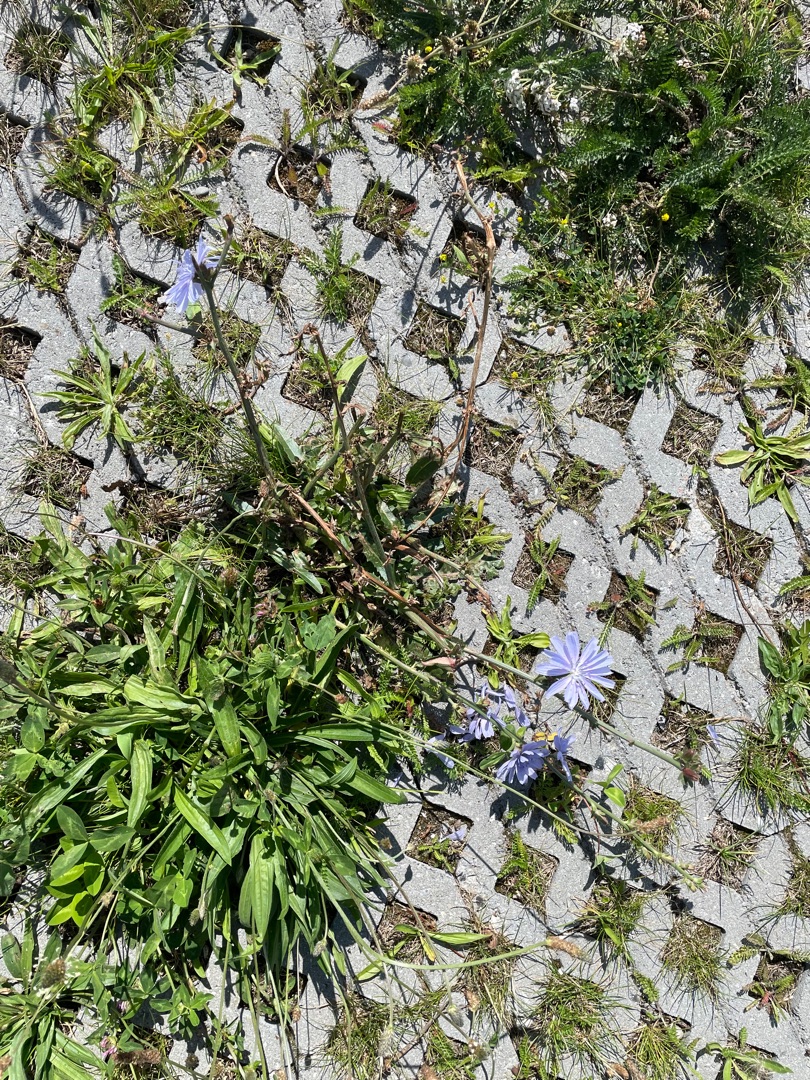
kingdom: Plantae
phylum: Tracheophyta
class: Magnoliopsida
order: Asterales
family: Asteraceae
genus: Cichorium
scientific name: Cichorium intybus
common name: Cikorie
